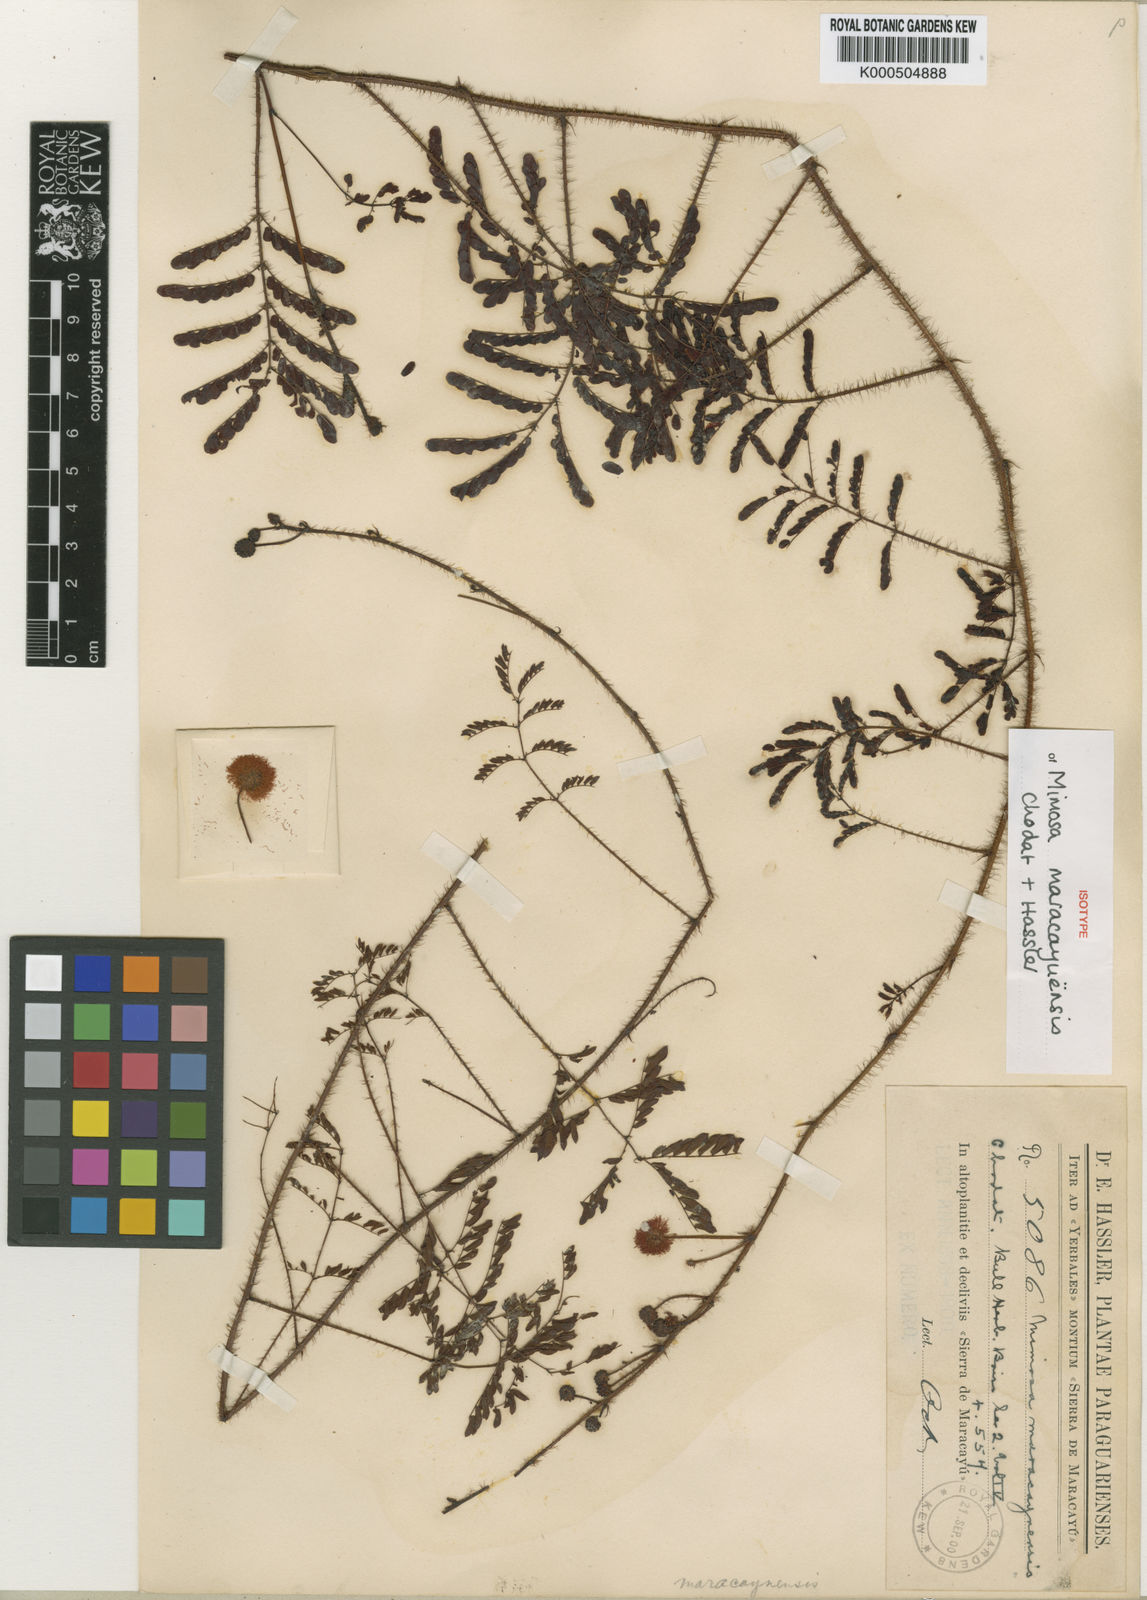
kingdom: Plantae
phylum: Tracheophyta
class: Magnoliopsida
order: Fabales
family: Fabaceae
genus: Mimosa
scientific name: Mimosa maracayuensis
